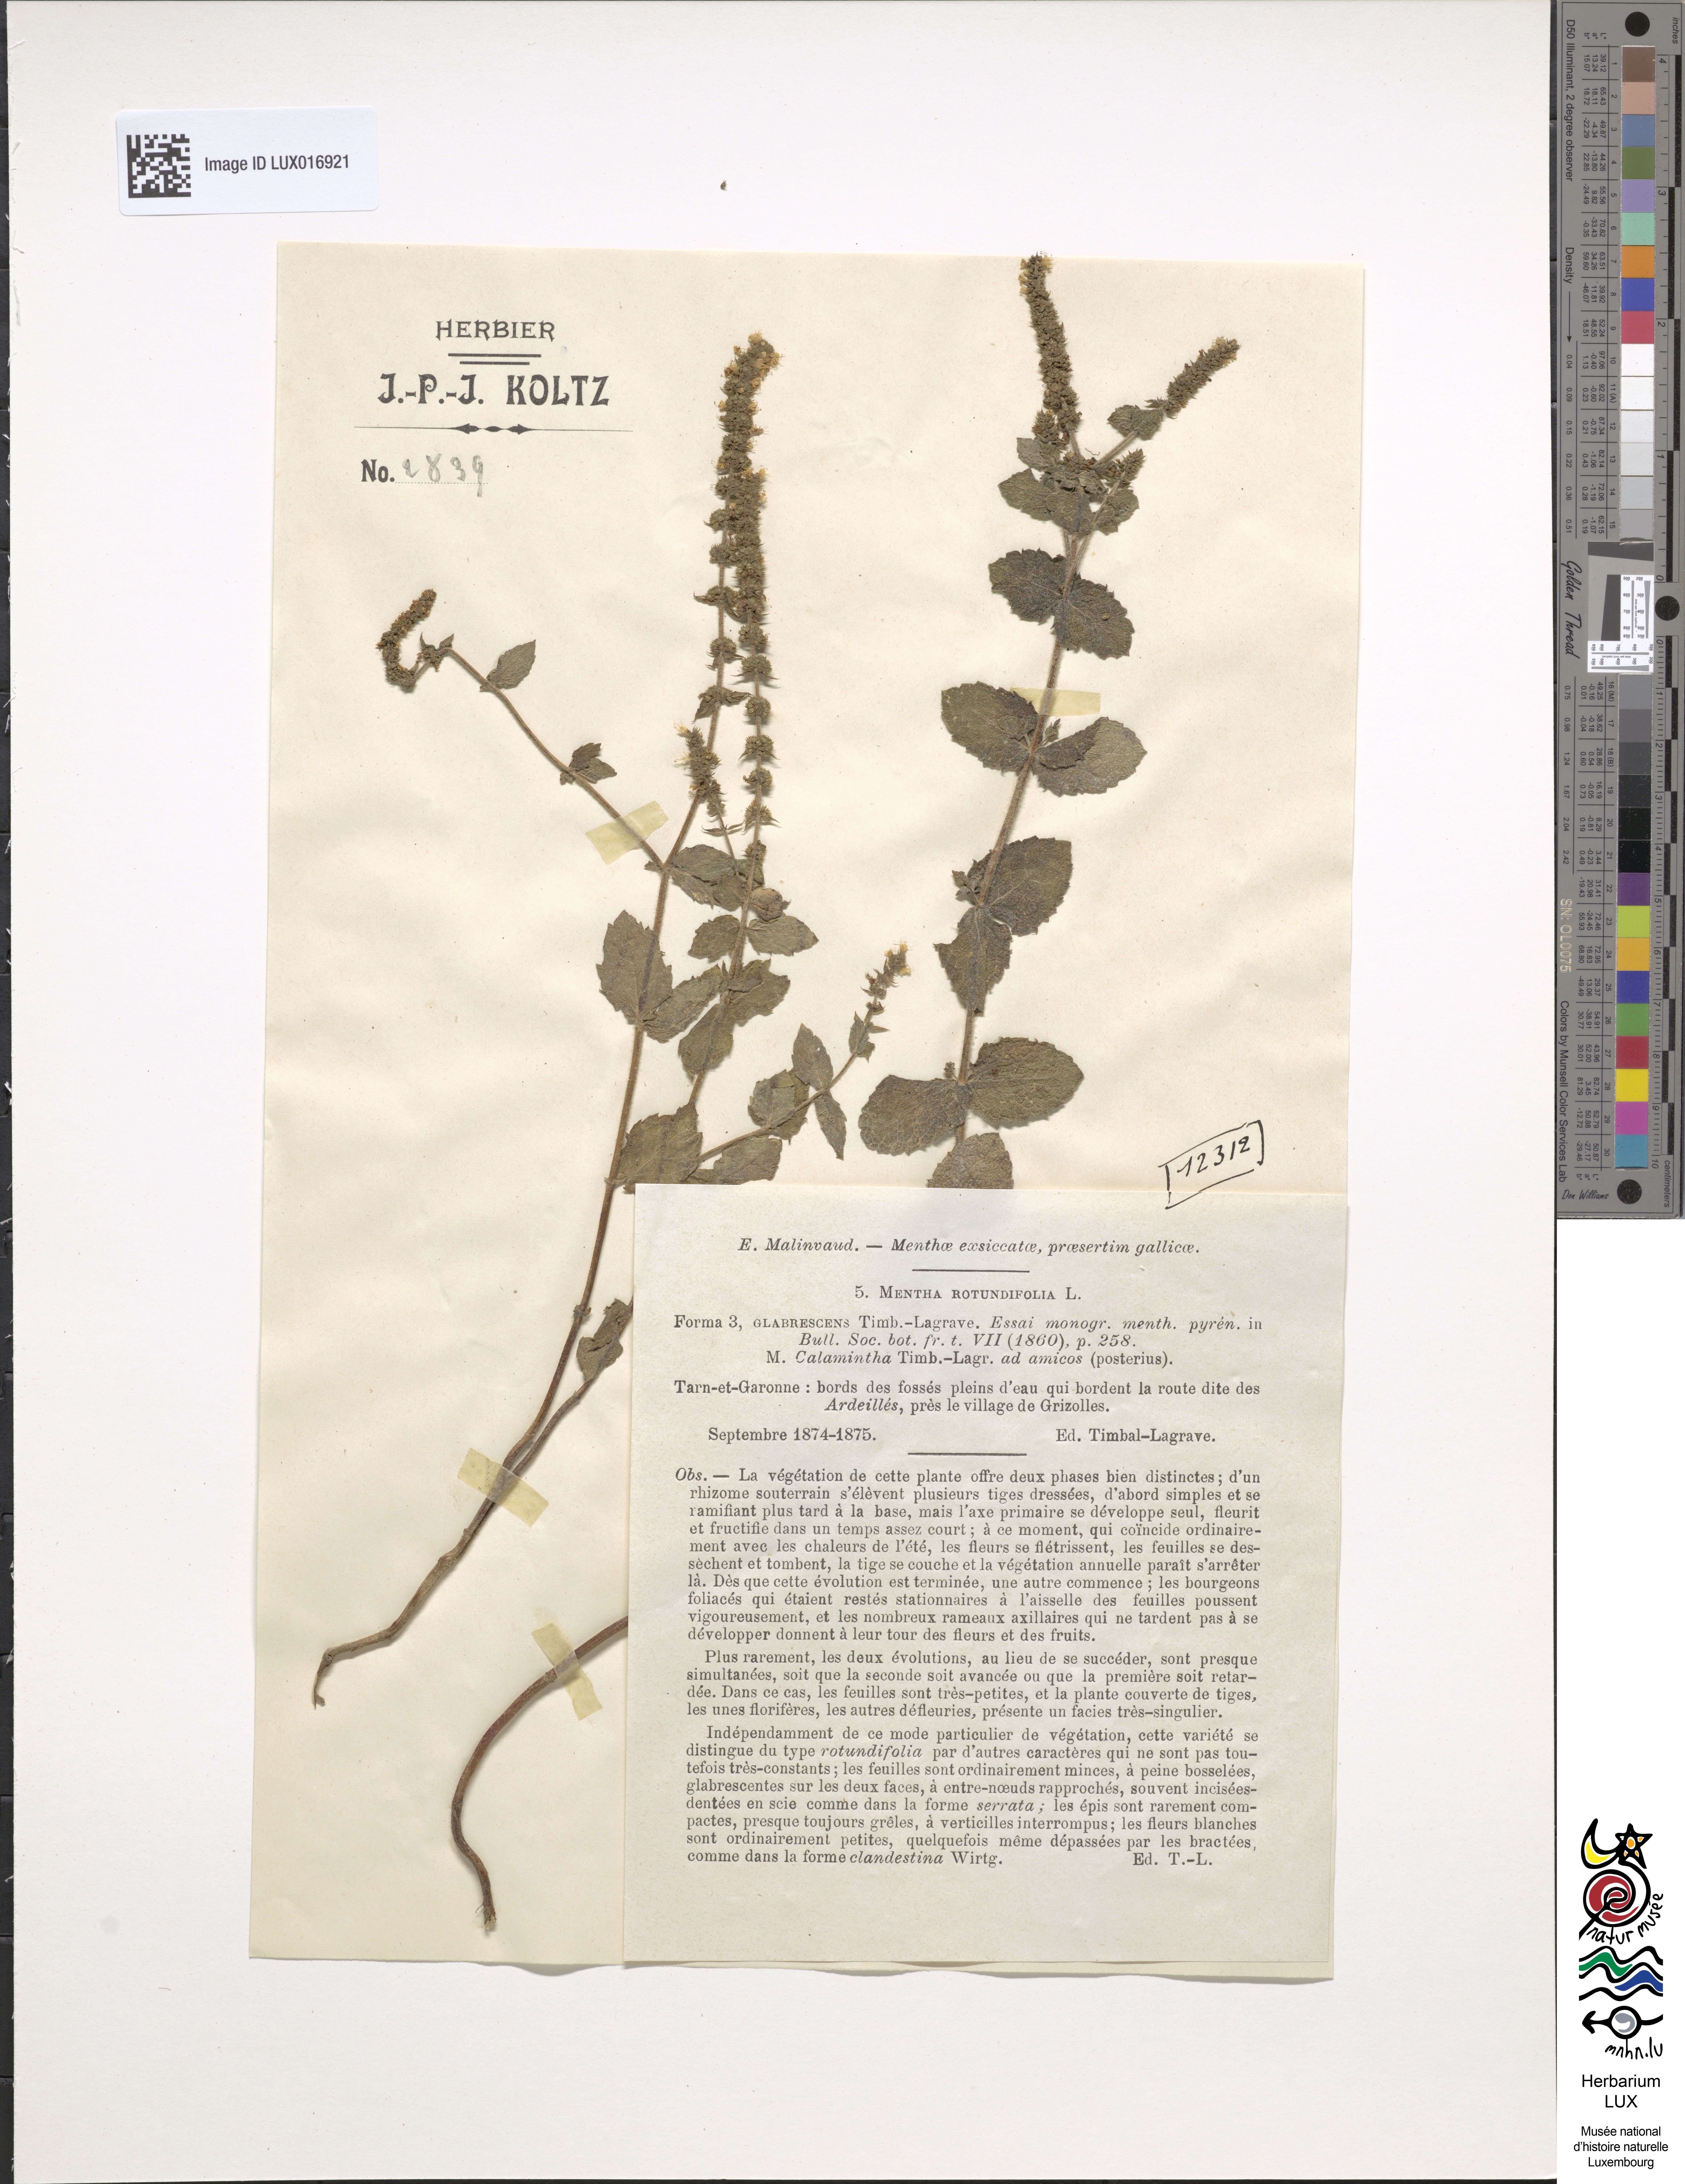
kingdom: Plantae
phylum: Tracheophyta
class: Magnoliopsida
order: Lamiales
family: Lamiaceae
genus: Mentha
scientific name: Mentha rotundifolia
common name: Bigleaf mint
